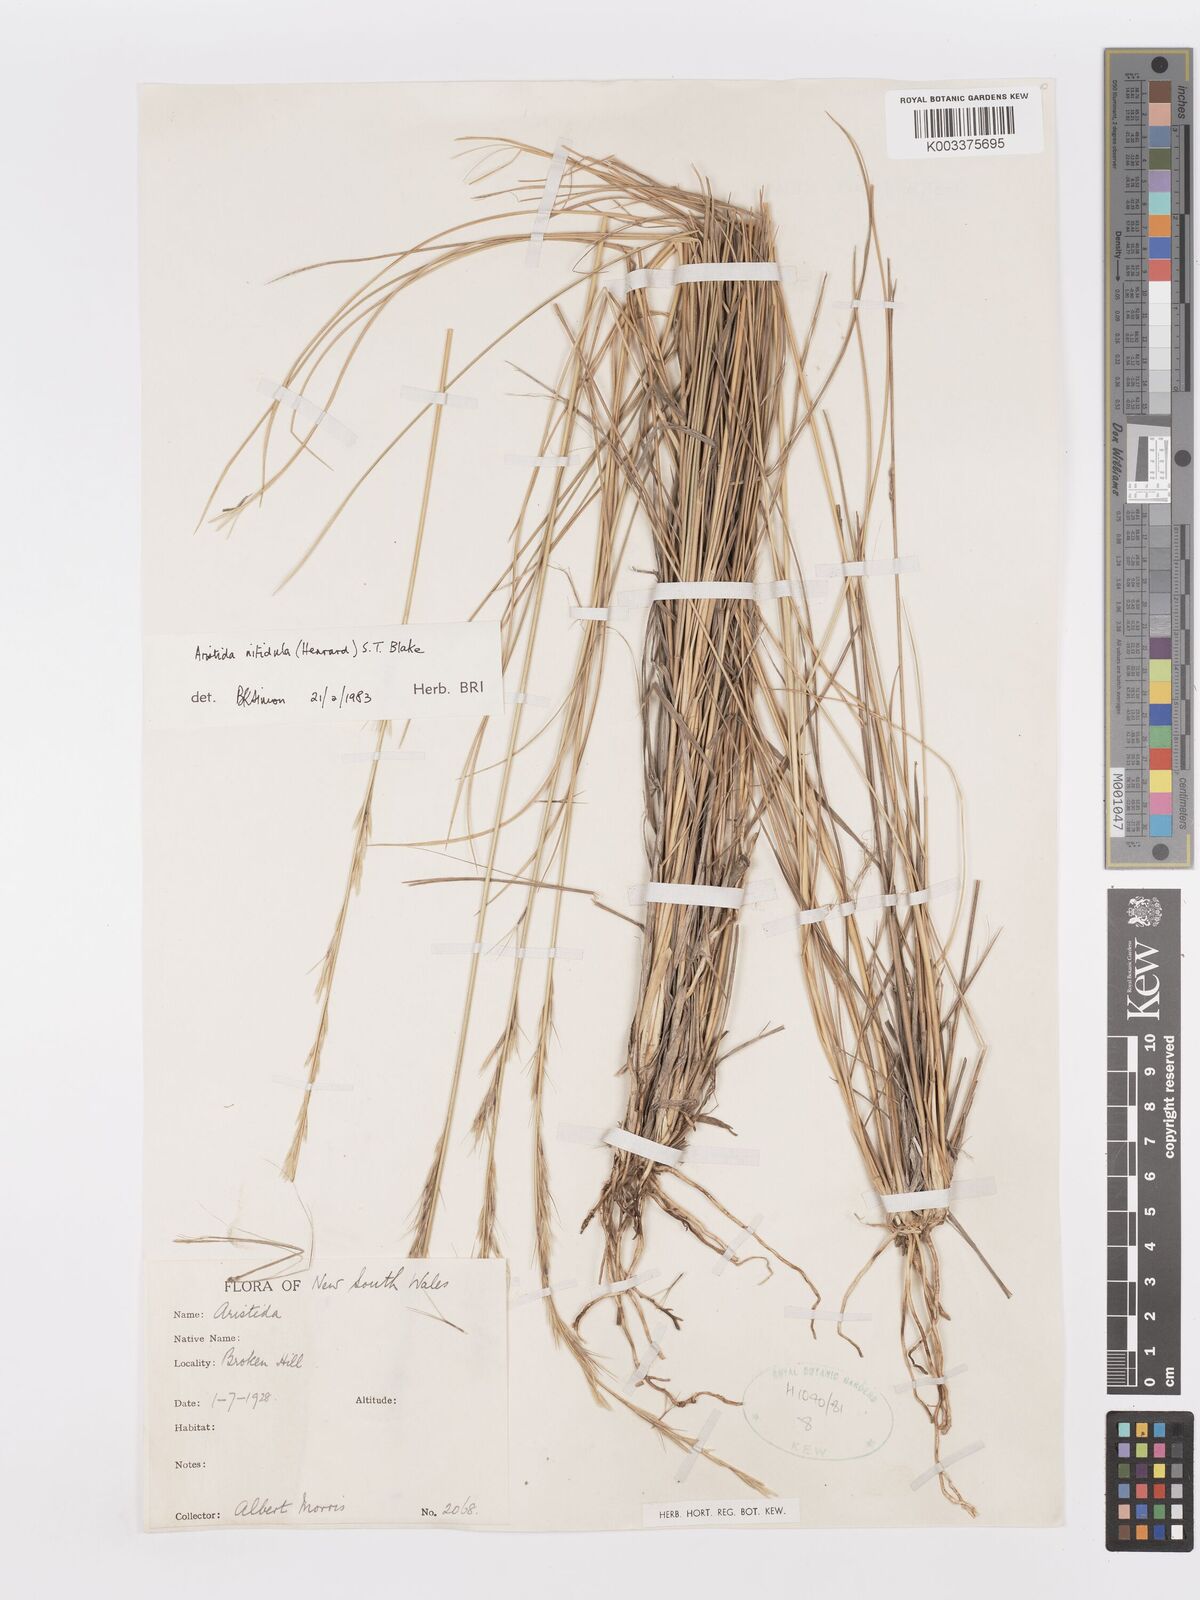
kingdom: Plantae
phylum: Tracheophyta
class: Liliopsida
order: Poales
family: Poaceae
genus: Aristida
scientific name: Aristida nitidula
